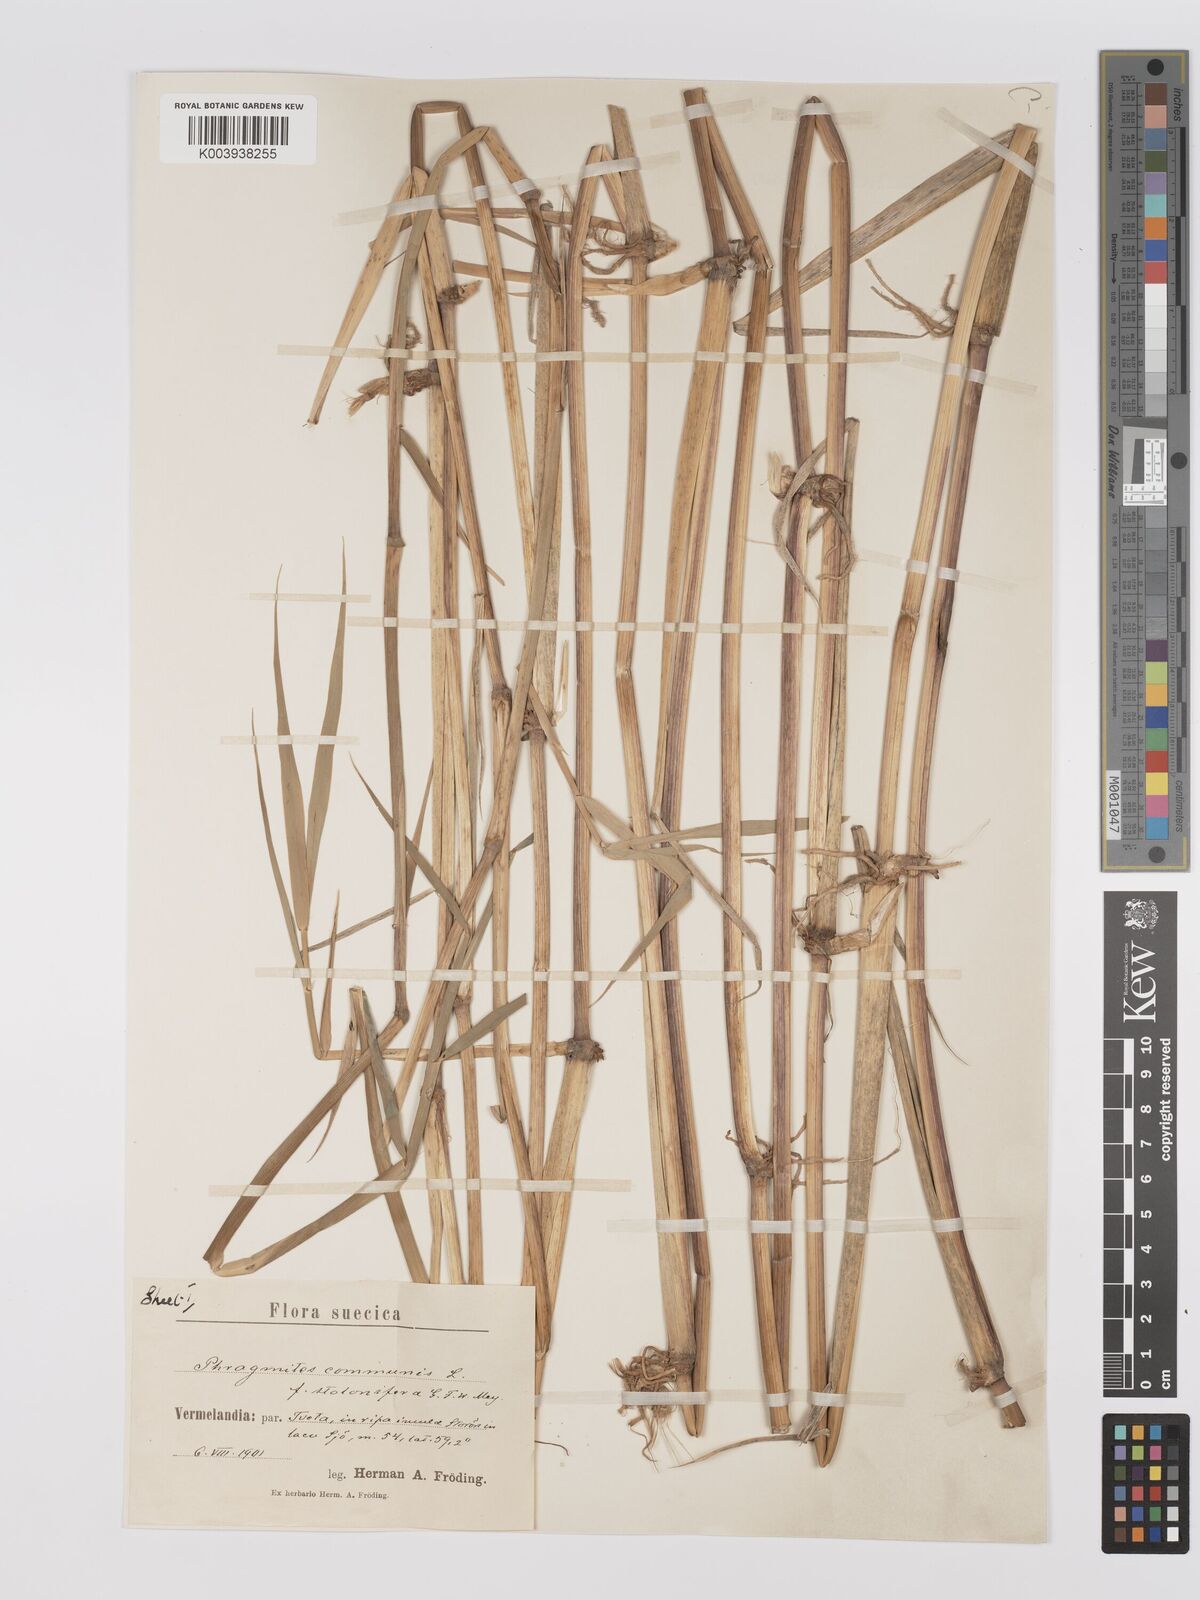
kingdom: Plantae
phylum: Tracheophyta
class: Liliopsida
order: Poales
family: Poaceae
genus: Phragmites
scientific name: Phragmites australis
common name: Common reed
